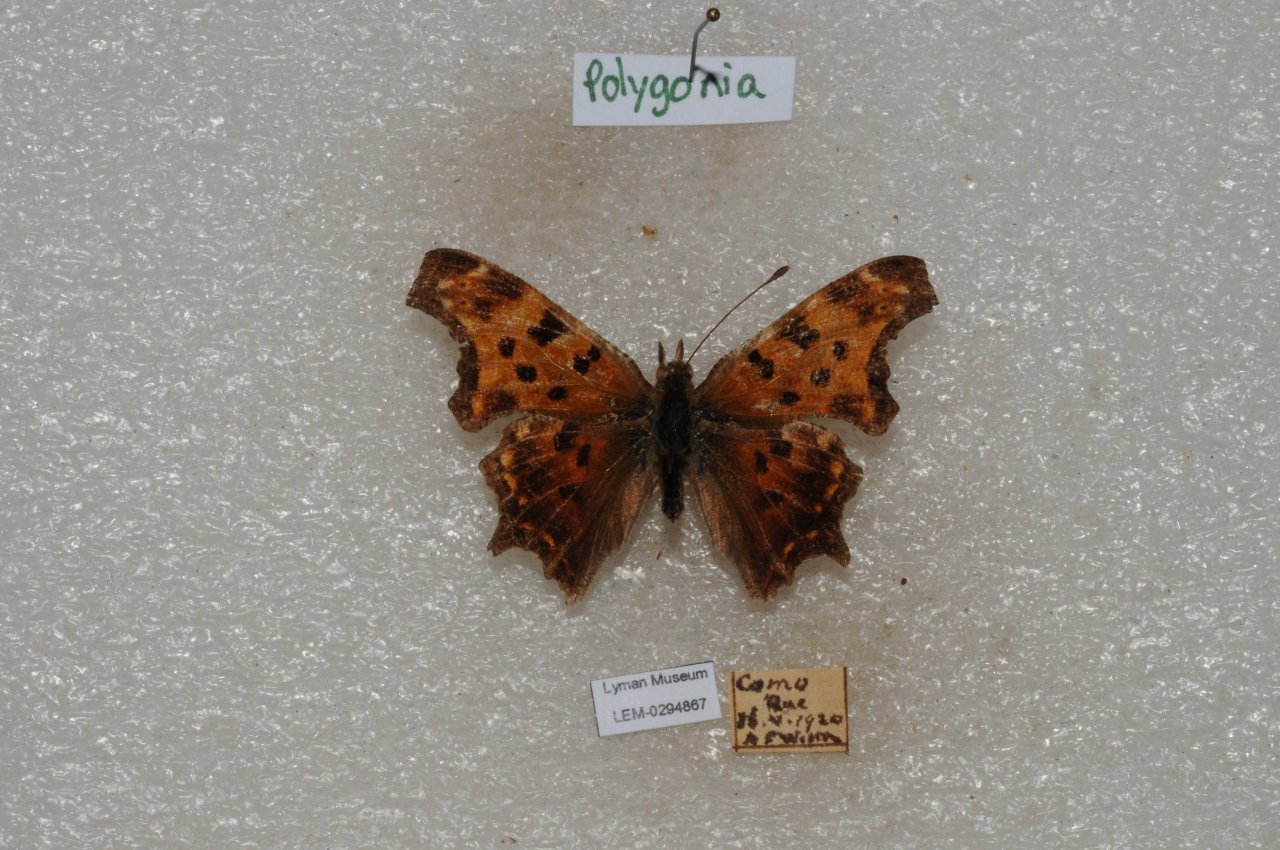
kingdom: Animalia
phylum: Arthropoda
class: Insecta
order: Lepidoptera
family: Nymphalidae
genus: Polygonia
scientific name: Polygonia comma
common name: Eastern Comma
